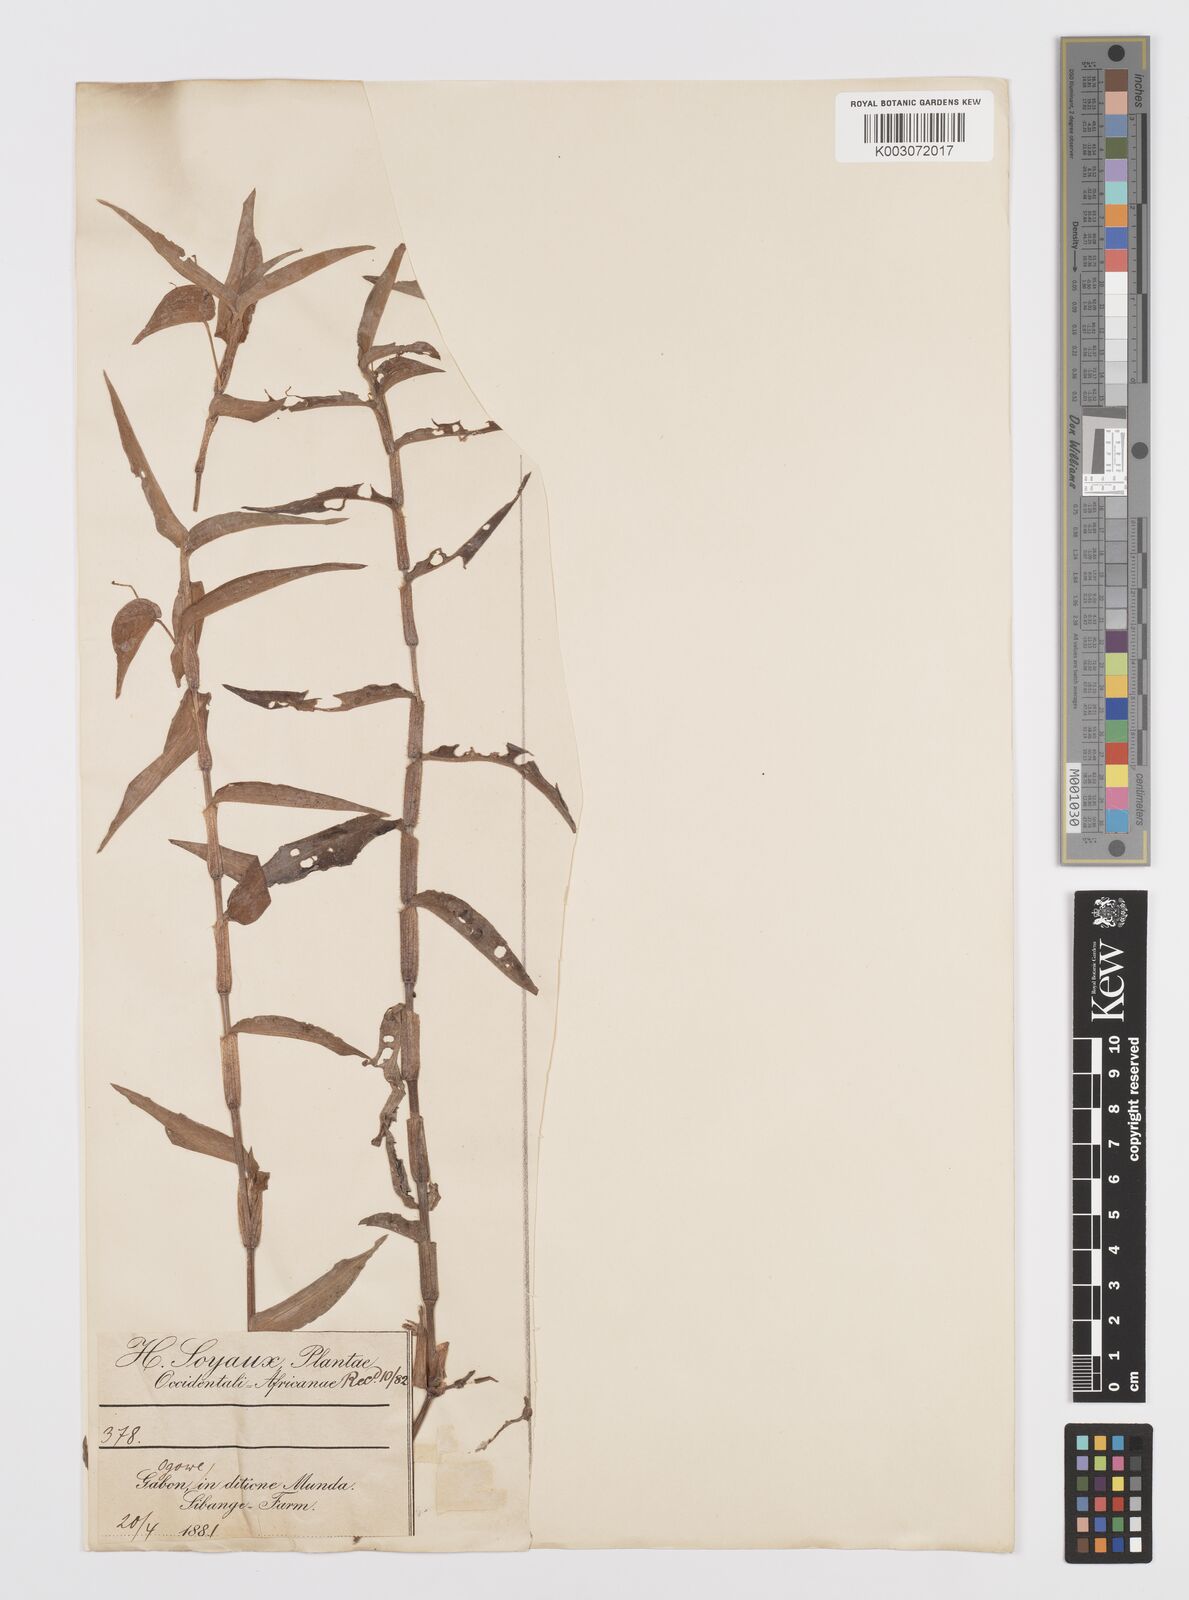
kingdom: Plantae
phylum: Tracheophyta
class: Liliopsida
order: Commelinales
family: Commelinaceae
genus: Commelina
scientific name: Commelina diffusa
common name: Climbing dayflower
